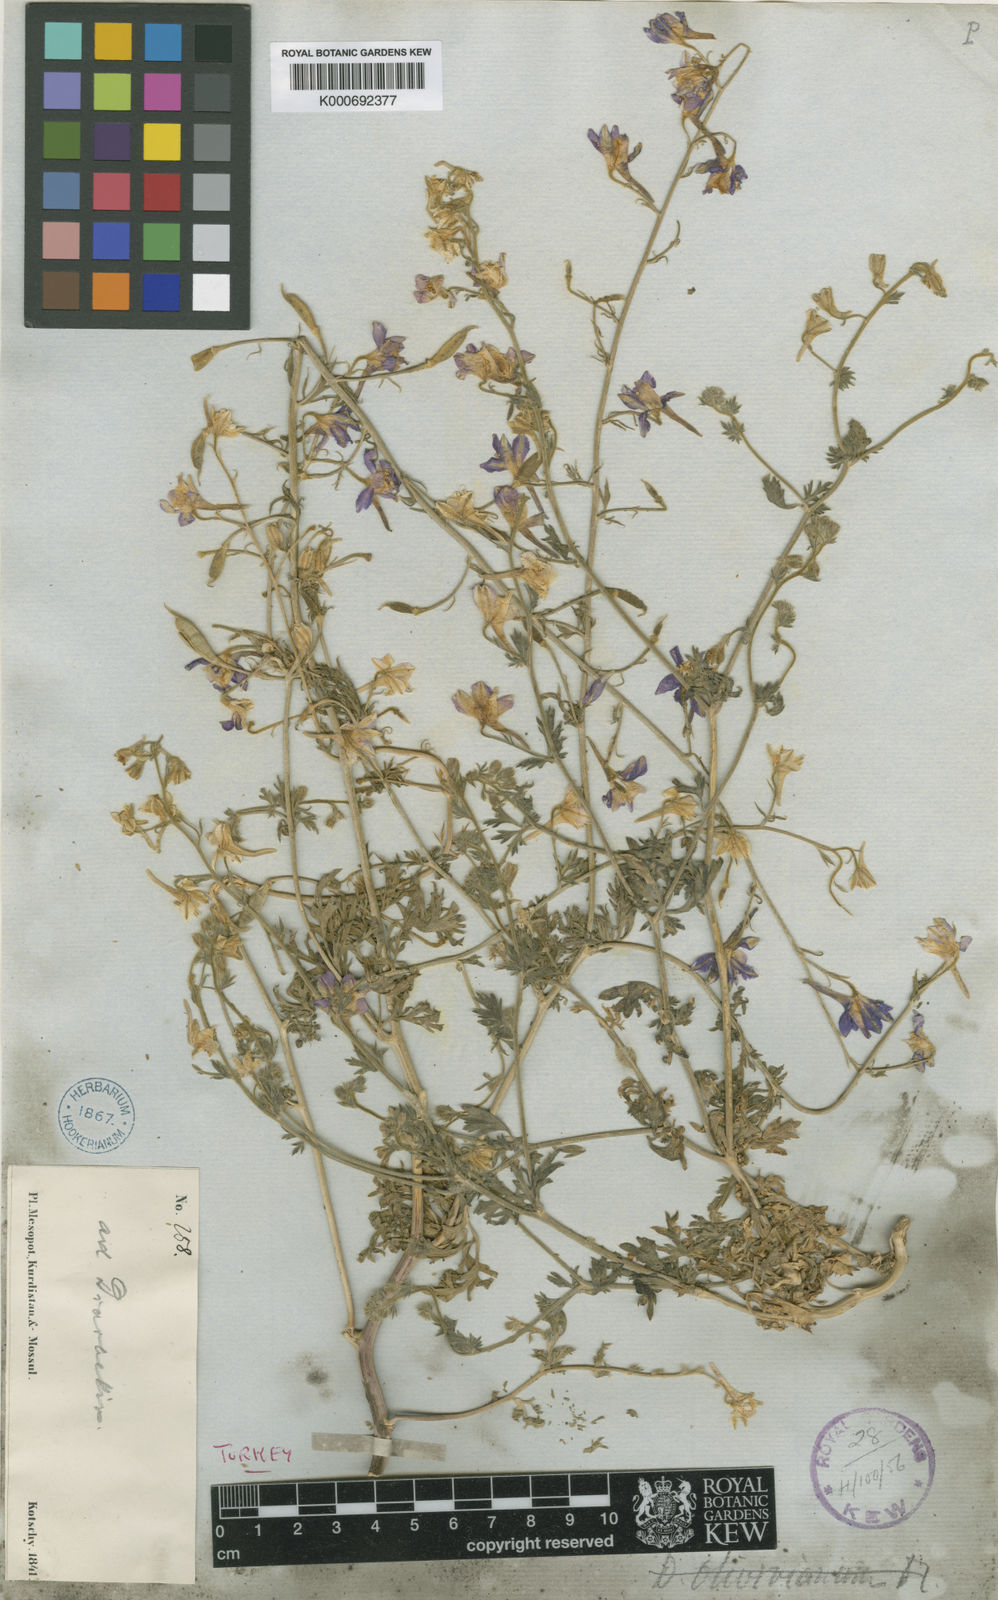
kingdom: Plantae
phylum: Tracheophyta
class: Magnoliopsida
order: Ranunculales
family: Ranunculaceae
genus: Delphinium
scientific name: Delphinium
